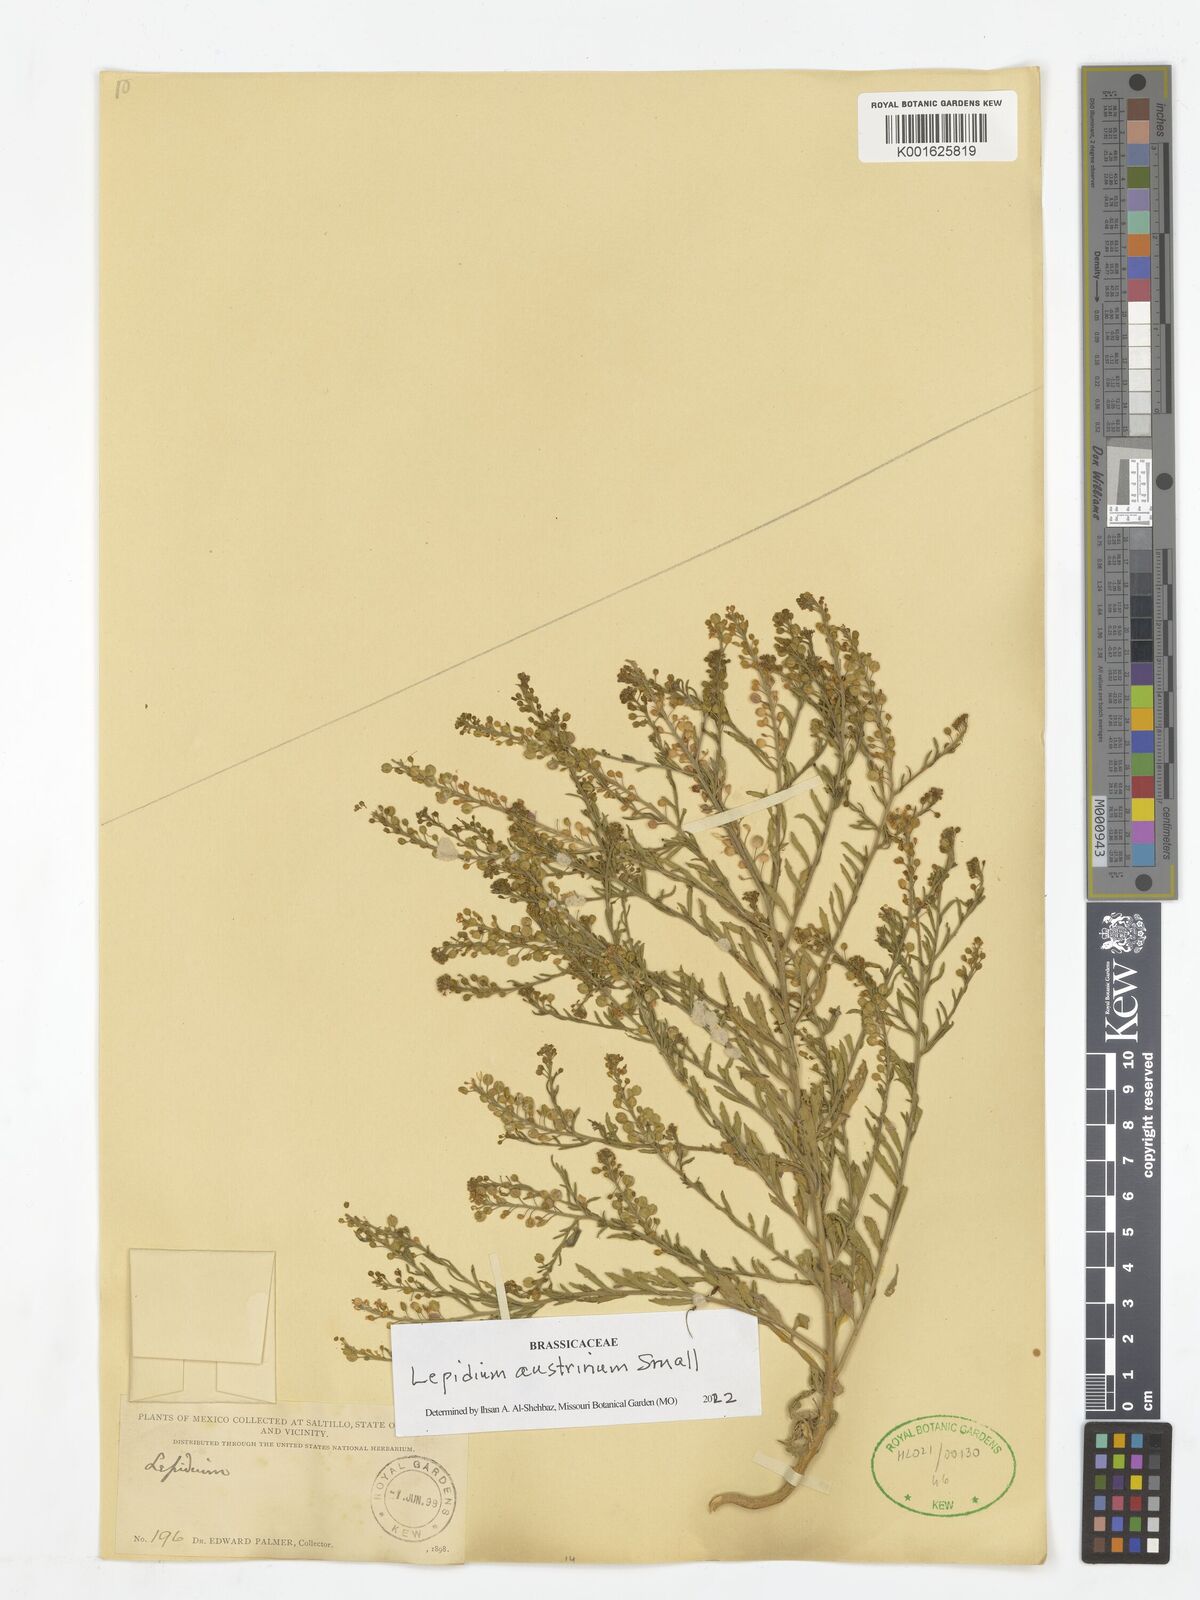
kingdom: Plantae
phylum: Tracheophyta
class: Magnoliopsida
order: Brassicales
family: Brassicaceae
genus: Lepidium
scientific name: Lepidium austrinum
